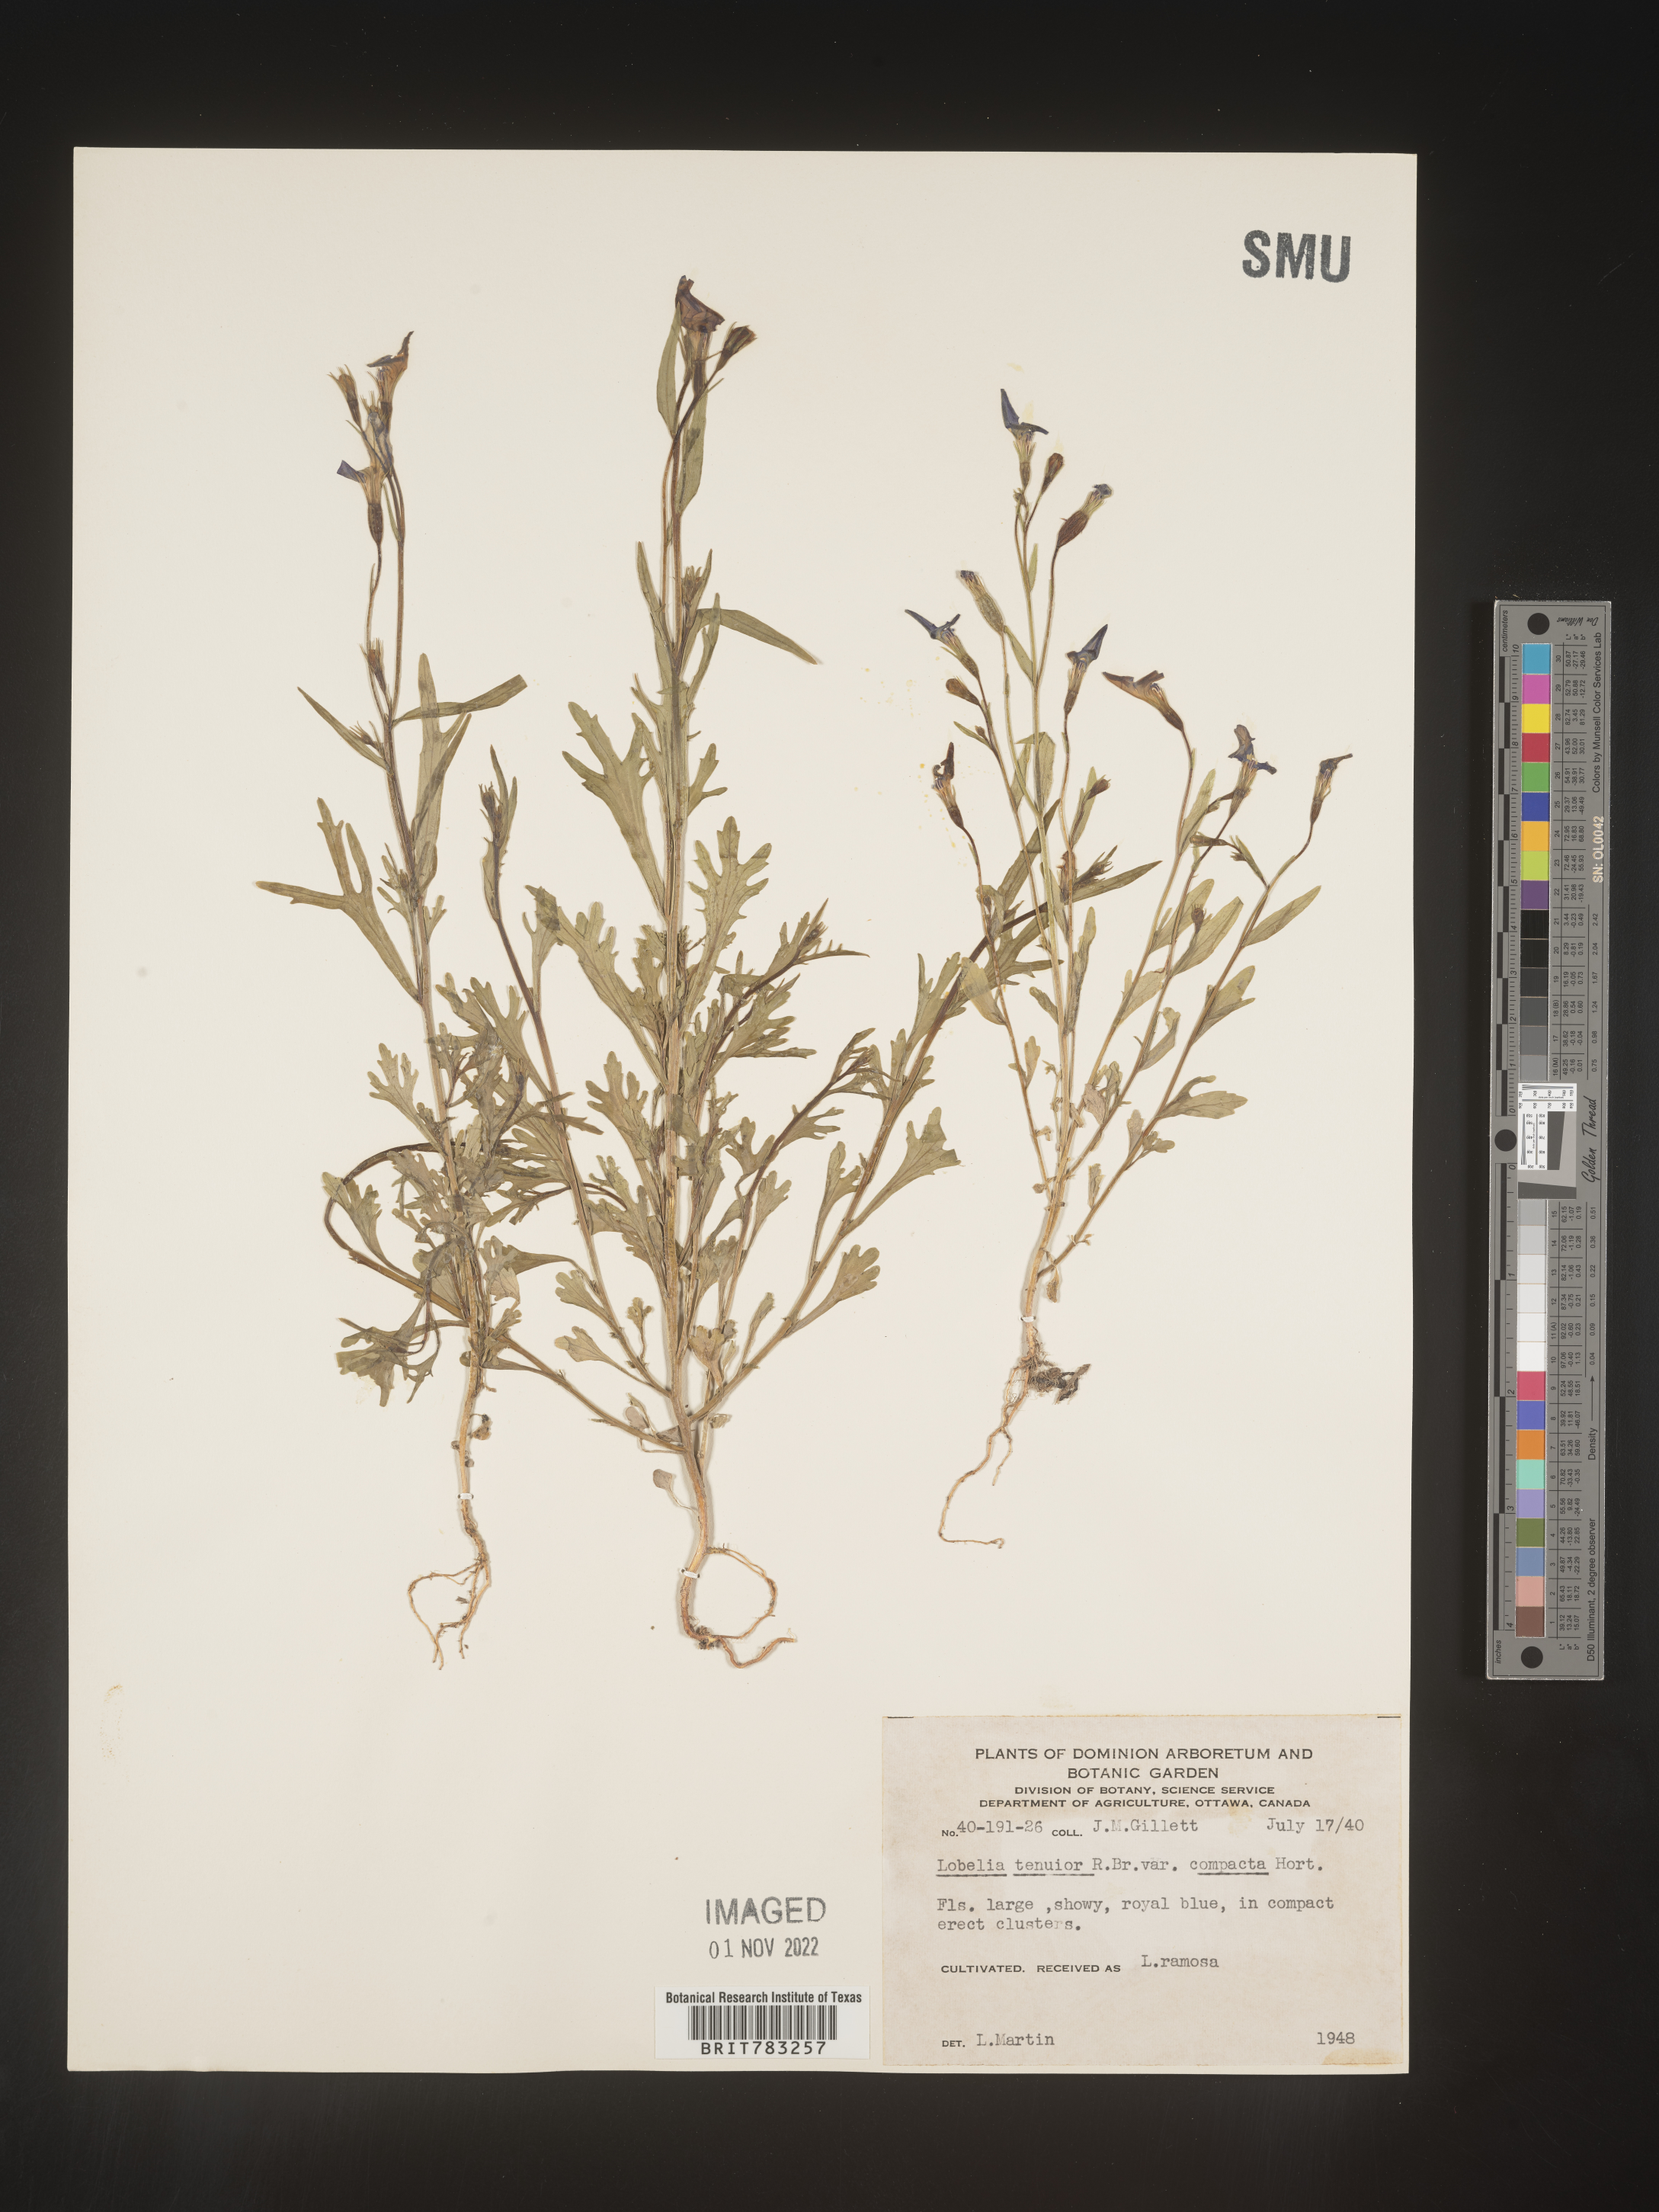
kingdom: Plantae
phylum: Tracheophyta
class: Magnoliopsida
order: Asterales
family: Campanulaceae
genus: Lobelia
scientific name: Lobelia
